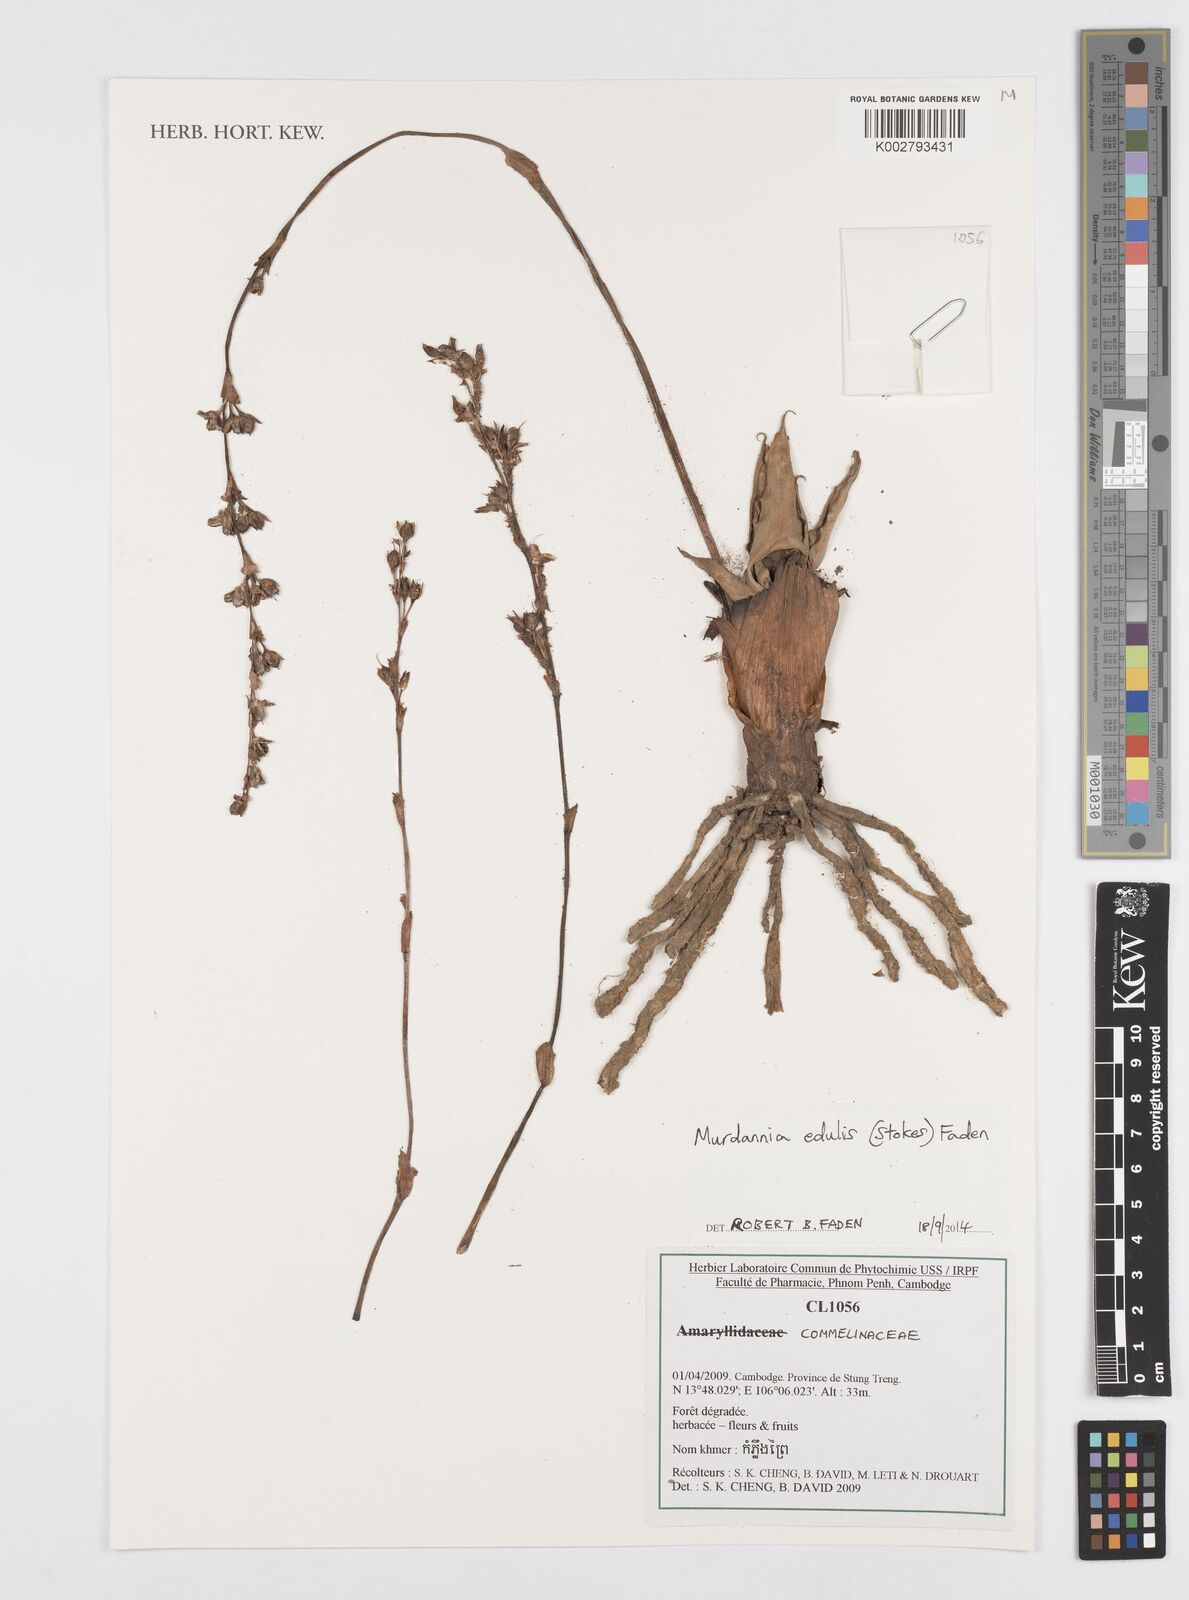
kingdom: Plantae
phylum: Tracheophyta
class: Liliopsida
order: Commelinales
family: Commelinaceae
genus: Murdannia
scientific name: Murdannia edulis
